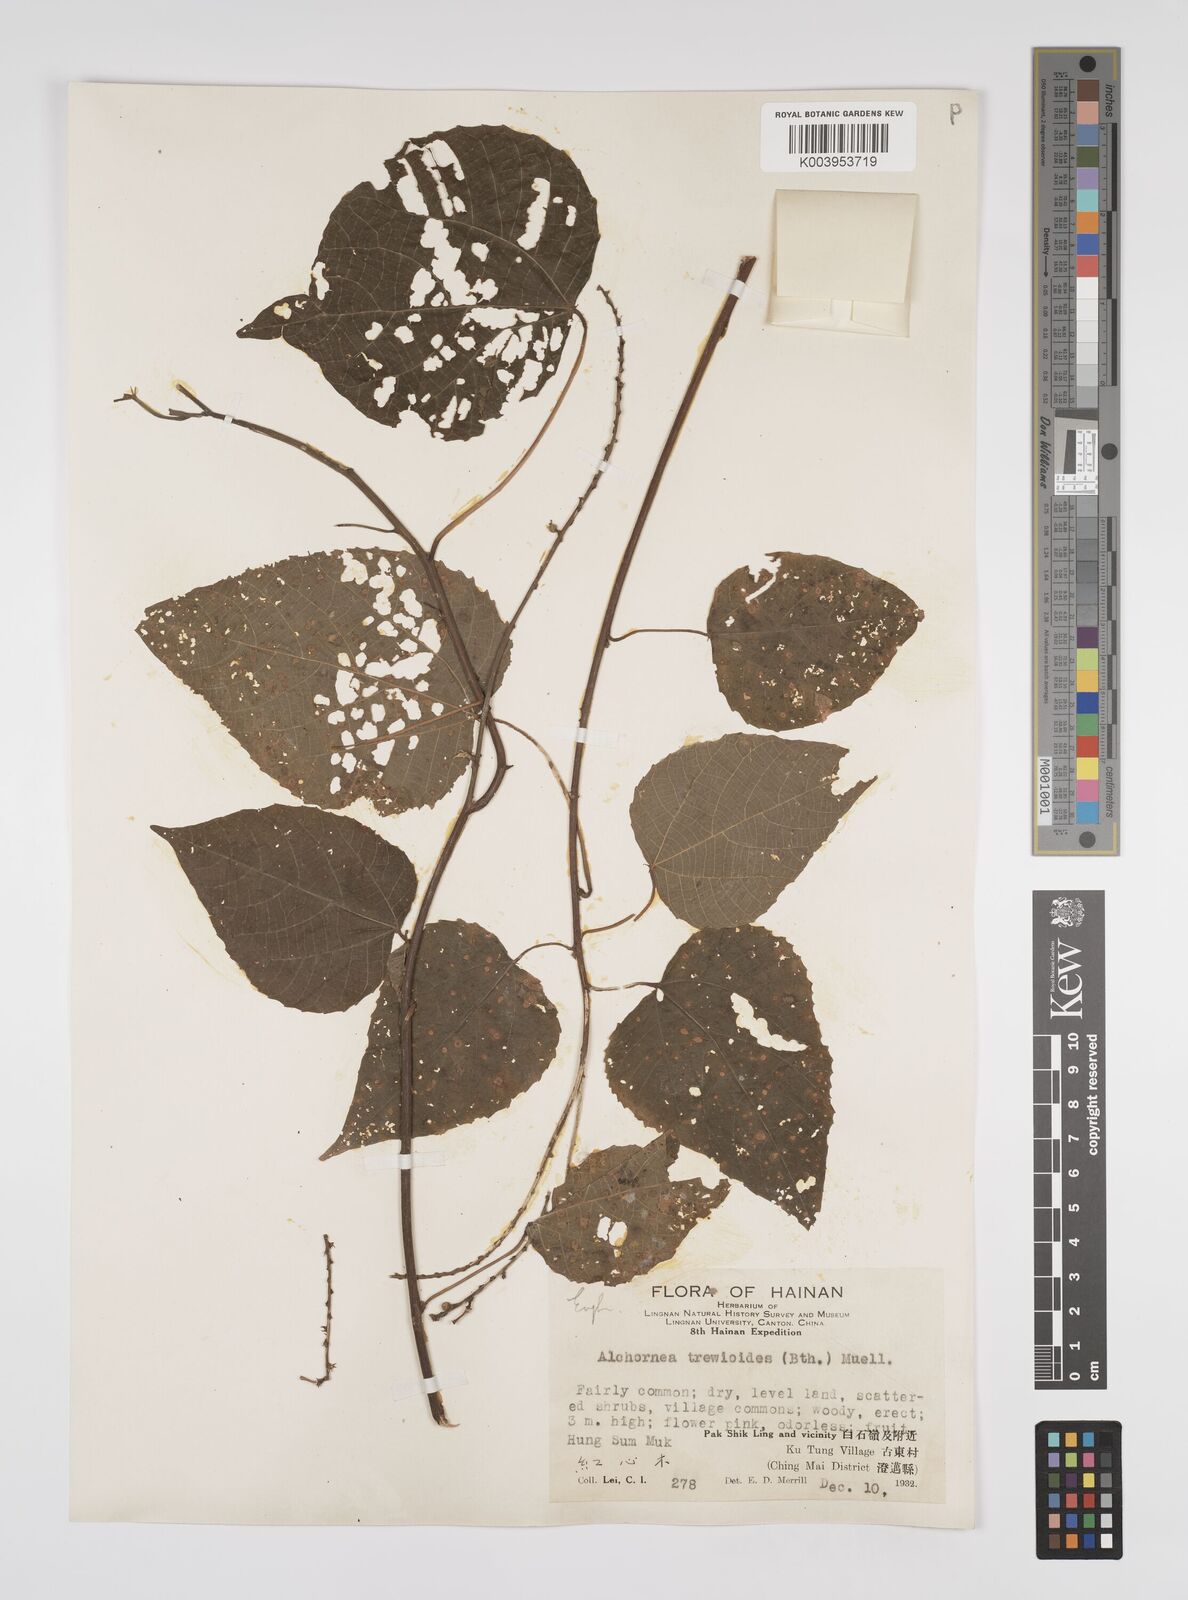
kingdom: Plantae
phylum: Tracheophyta
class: Magnoliopsida
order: Malpighiales
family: Euphorbiaceae
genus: Alchornea
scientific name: Alchornea trewioides
